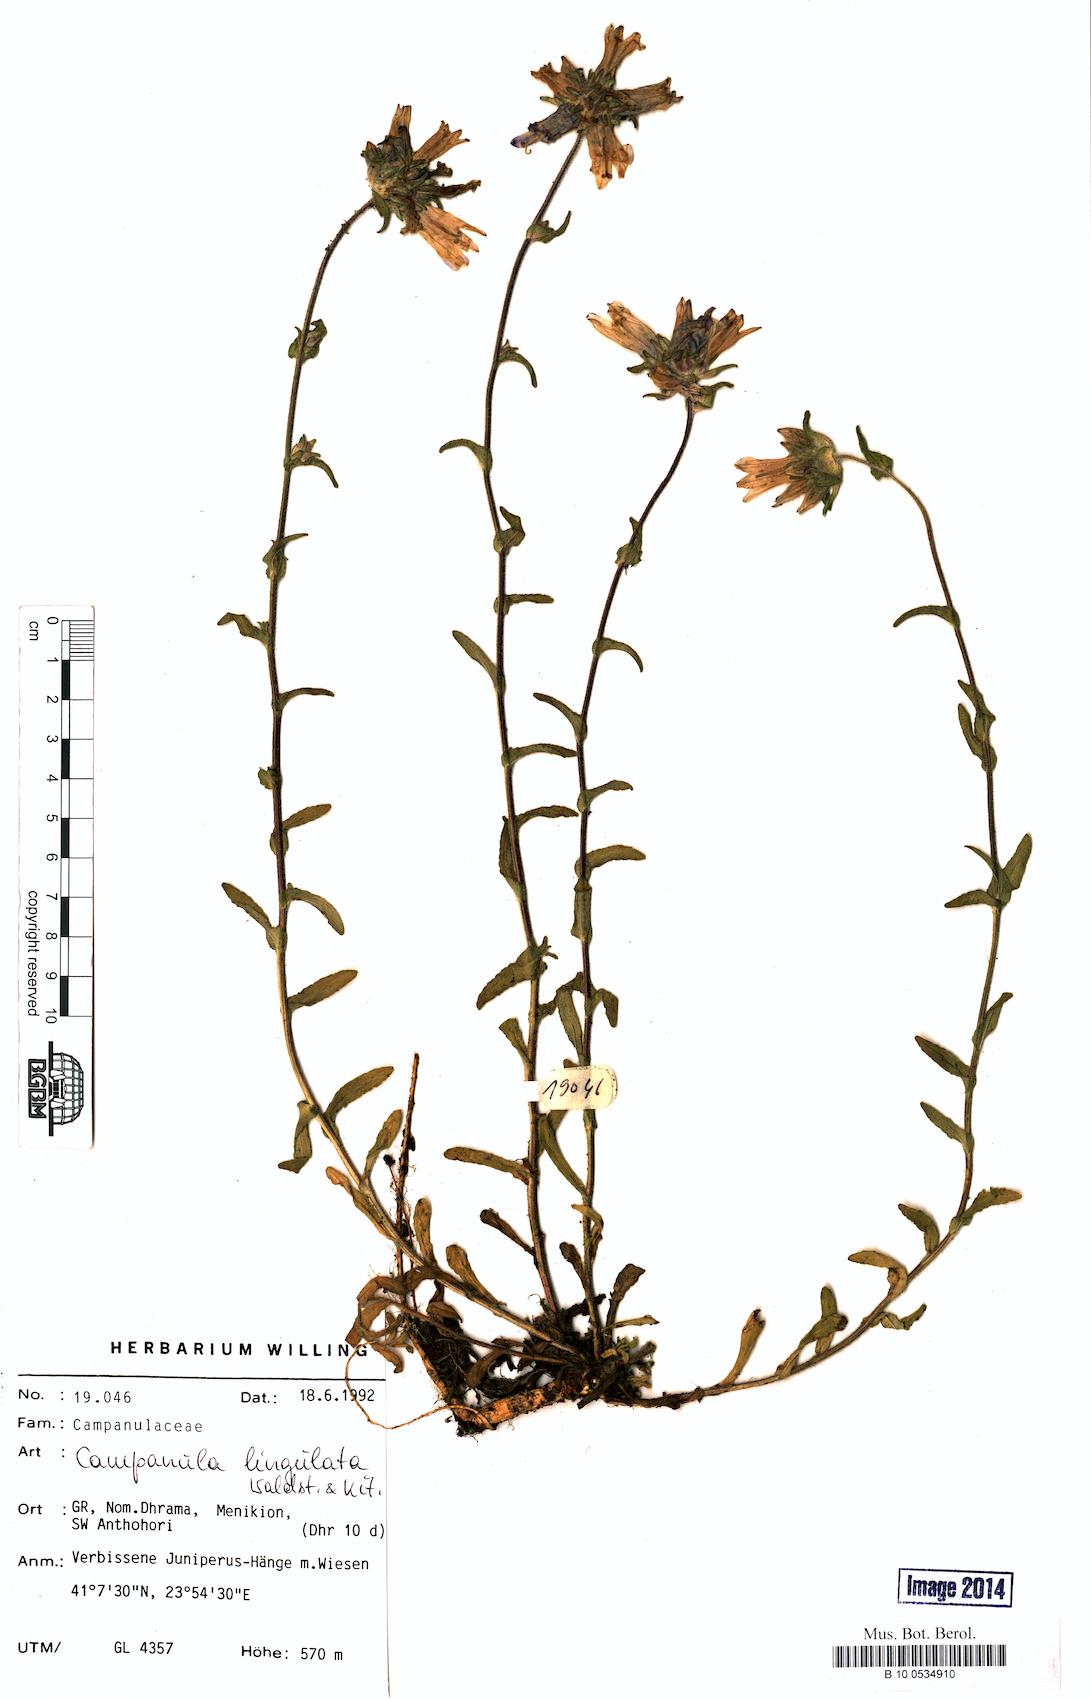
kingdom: Plantae
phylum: Tracheophyta
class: Magnoliopsida
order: Asterales
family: Campanulaceae
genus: Campanula
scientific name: Campanula lingulata
